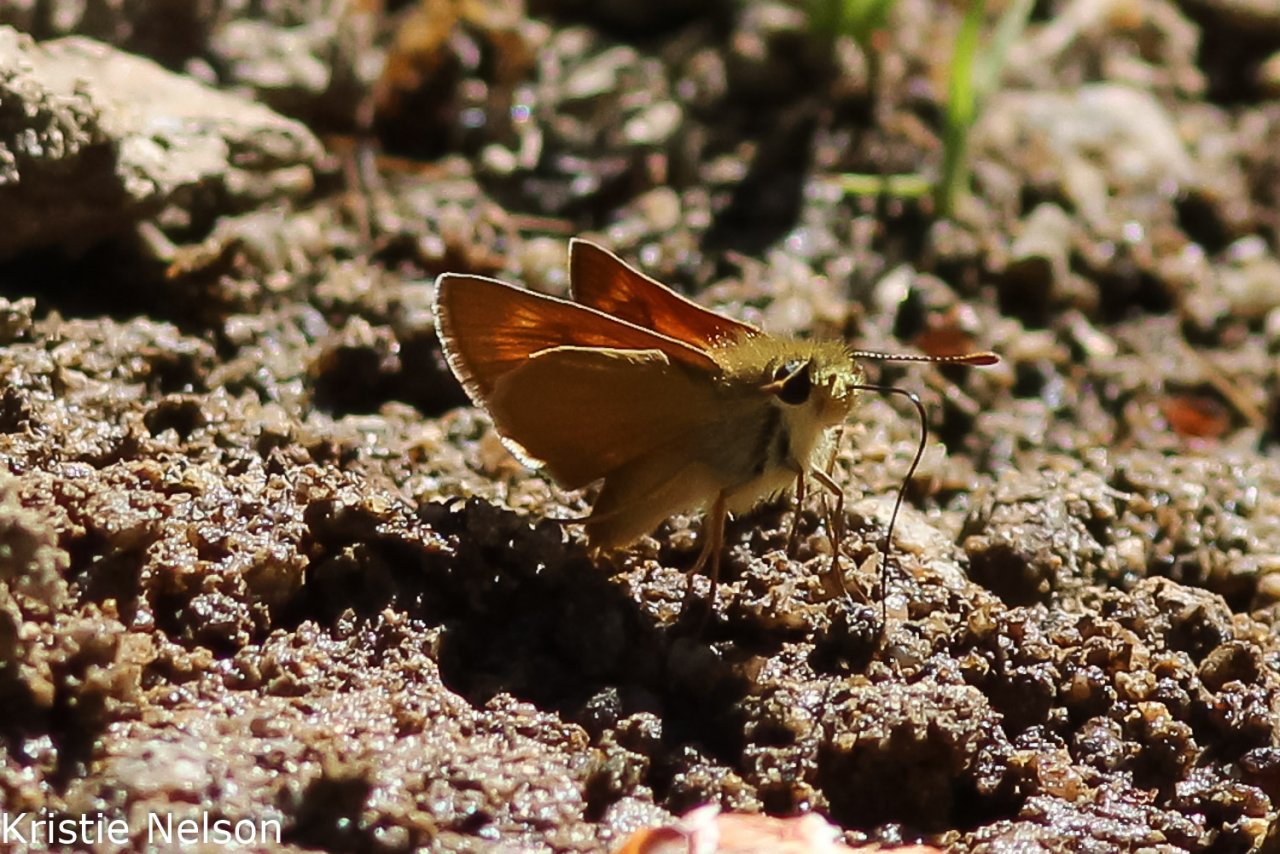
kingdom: Animalia
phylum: Arthropoda
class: Insecta
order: Lepidoptera
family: Hesperiidae
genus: Ochlodes
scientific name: Ochlodes agricola
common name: Rural Skipper
